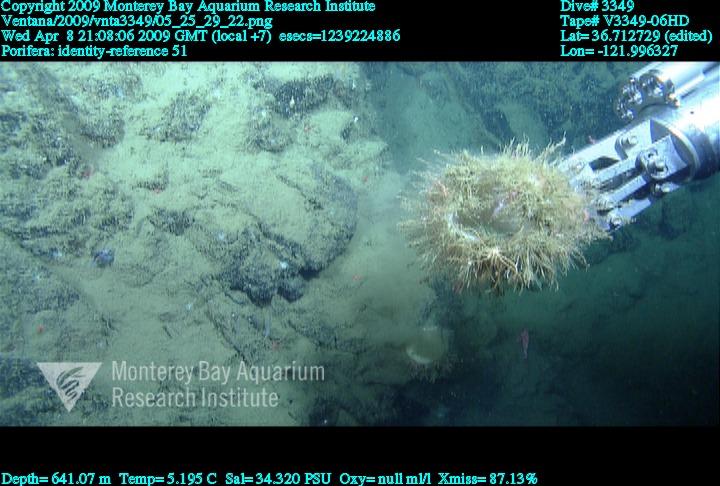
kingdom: Animalia
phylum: Porifera
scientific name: Porifera
